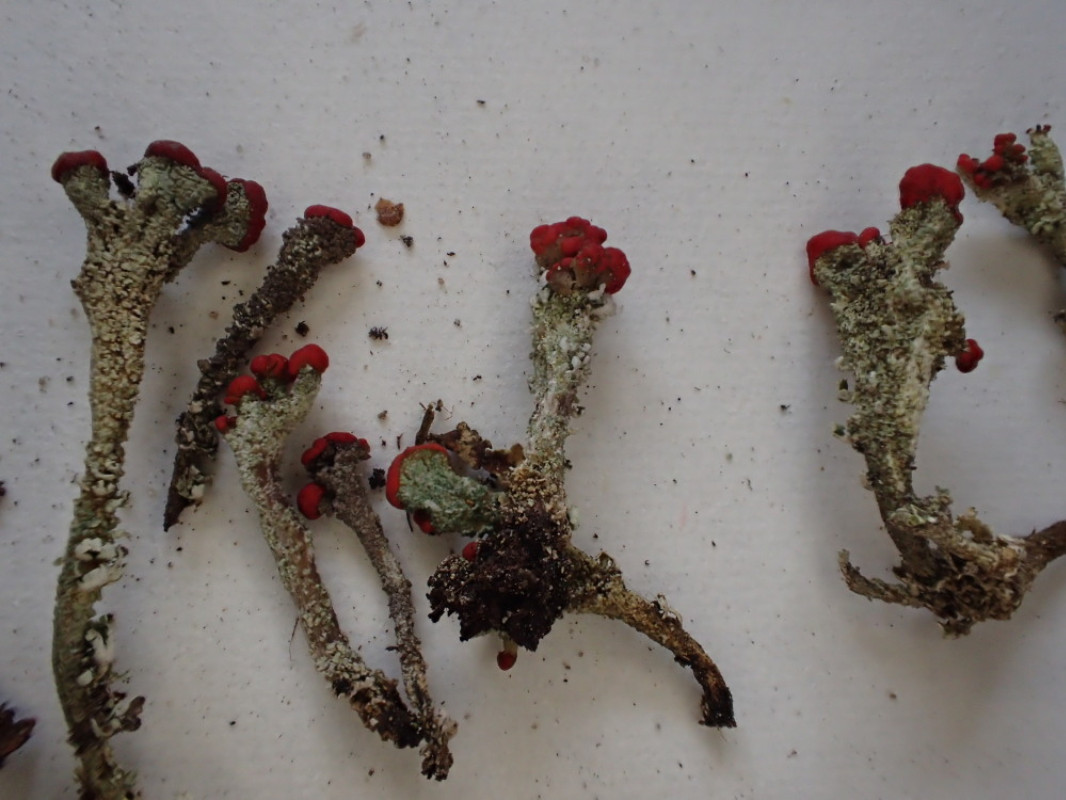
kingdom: Fungi
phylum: Ascomycota
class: Lecanoromycetes
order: Lecanorales
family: Cladoniaceae
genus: Cladonia
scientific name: Cladonia floerkeana
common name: lakrød bægerlav
